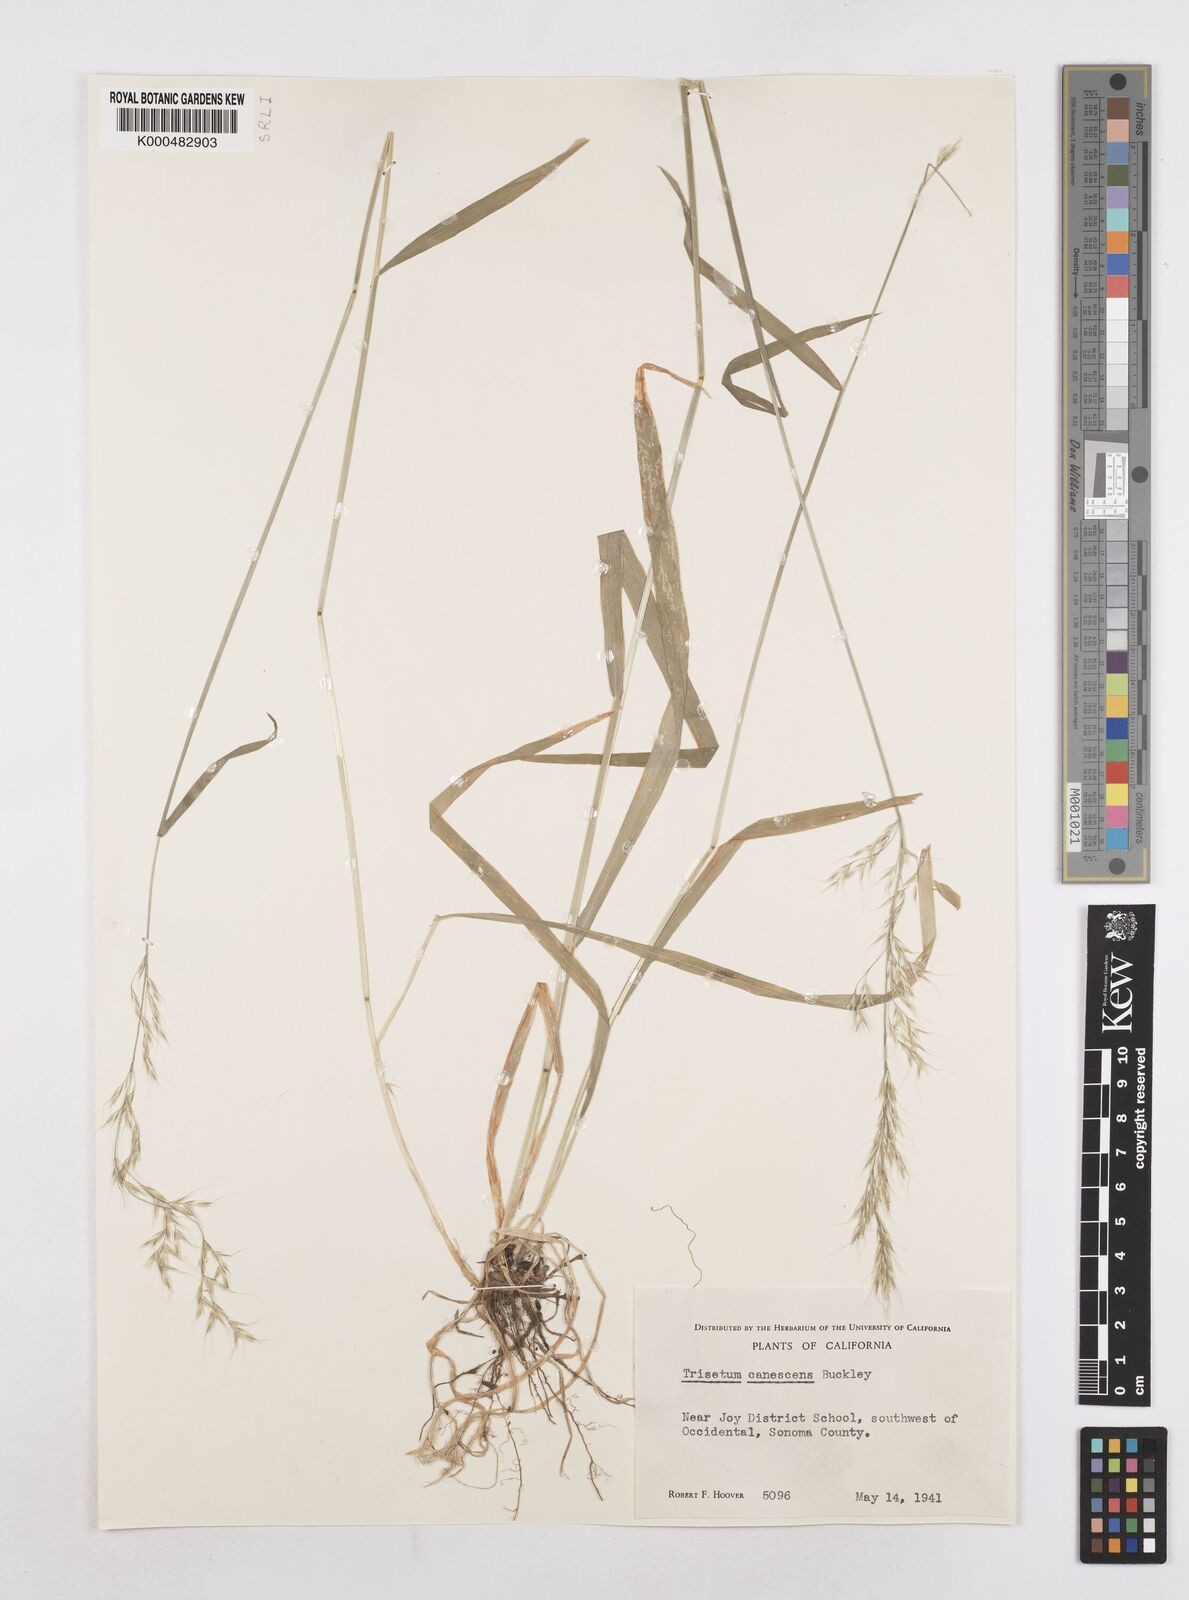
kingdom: Plantae
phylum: Tracheophyta
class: Liliopsida
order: Poales
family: Poaceae
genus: Graphephorum
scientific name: Graphephorum canescens
